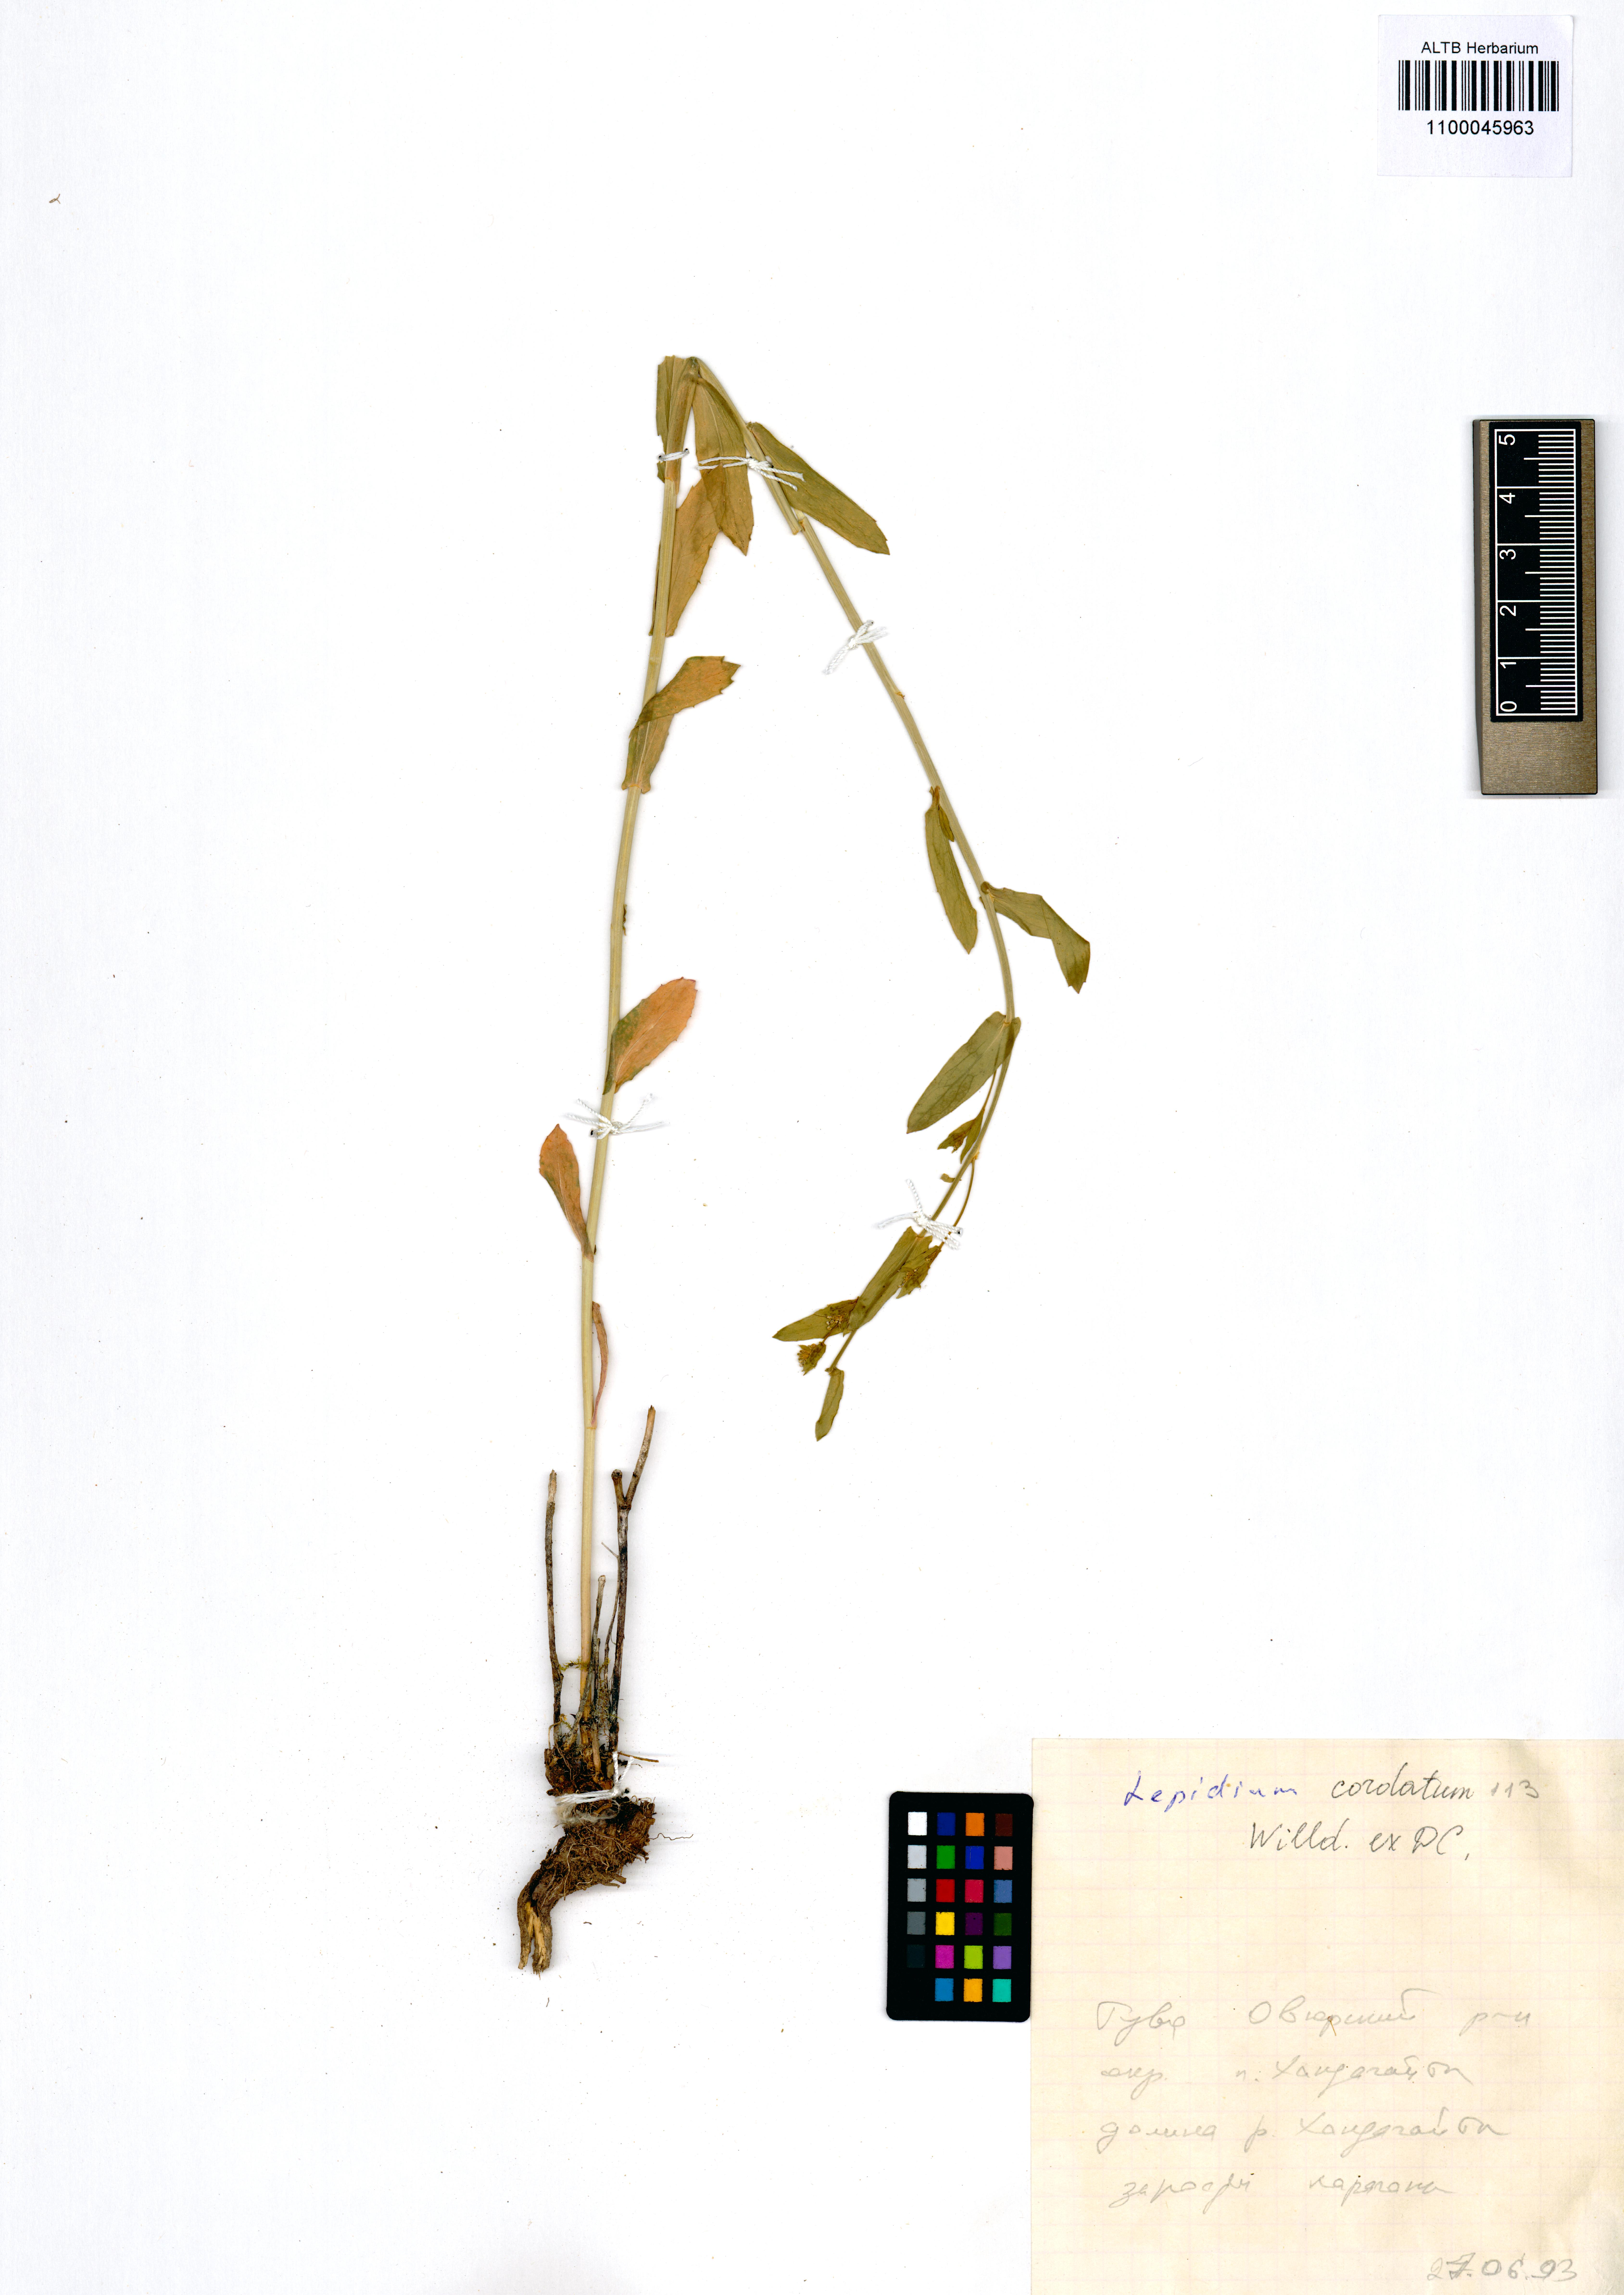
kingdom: Plantae
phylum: Tracheophyta
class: Magnoliopsida
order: Brassicales
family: Brassicaceae
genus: Lepidium
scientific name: Lepidium cordatum
